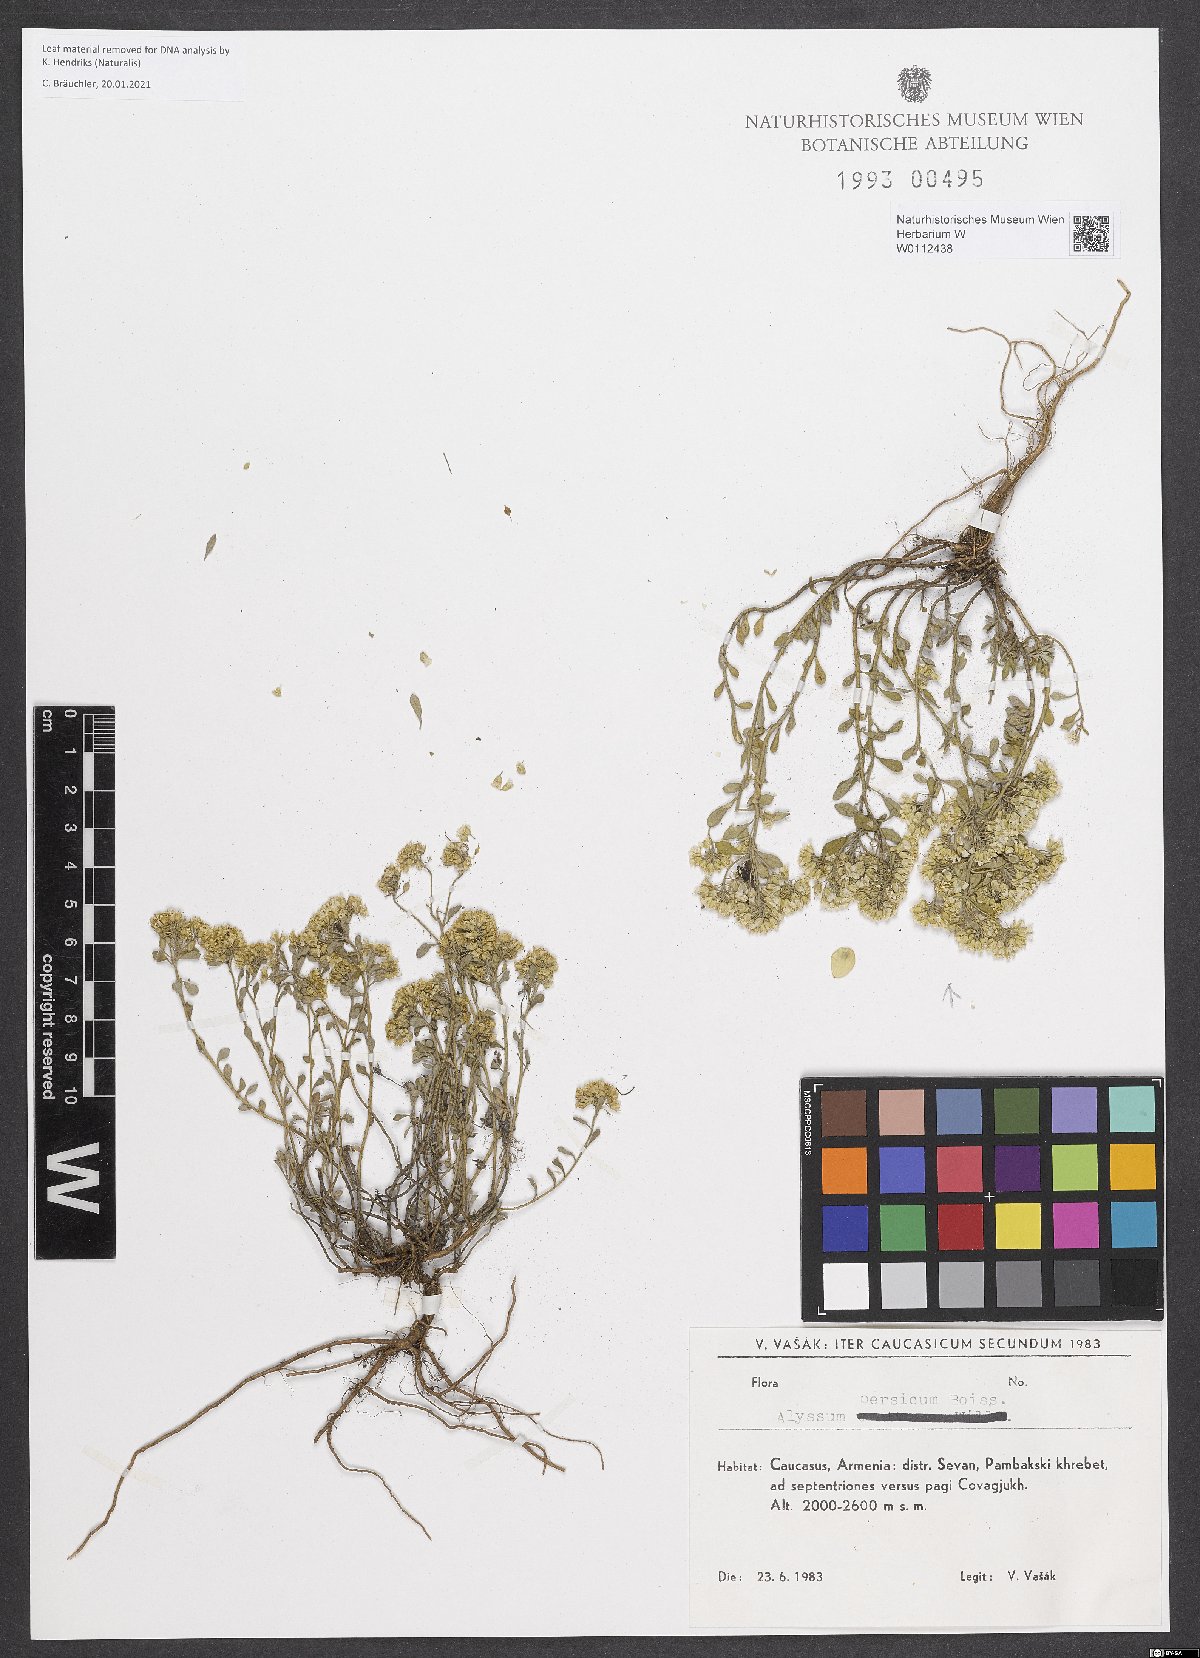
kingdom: Plantae
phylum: Tracheophyta
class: Magnoliopsida
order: Brassicales
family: Brassicaceae
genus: Alyssum
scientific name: Alyssum persicum
